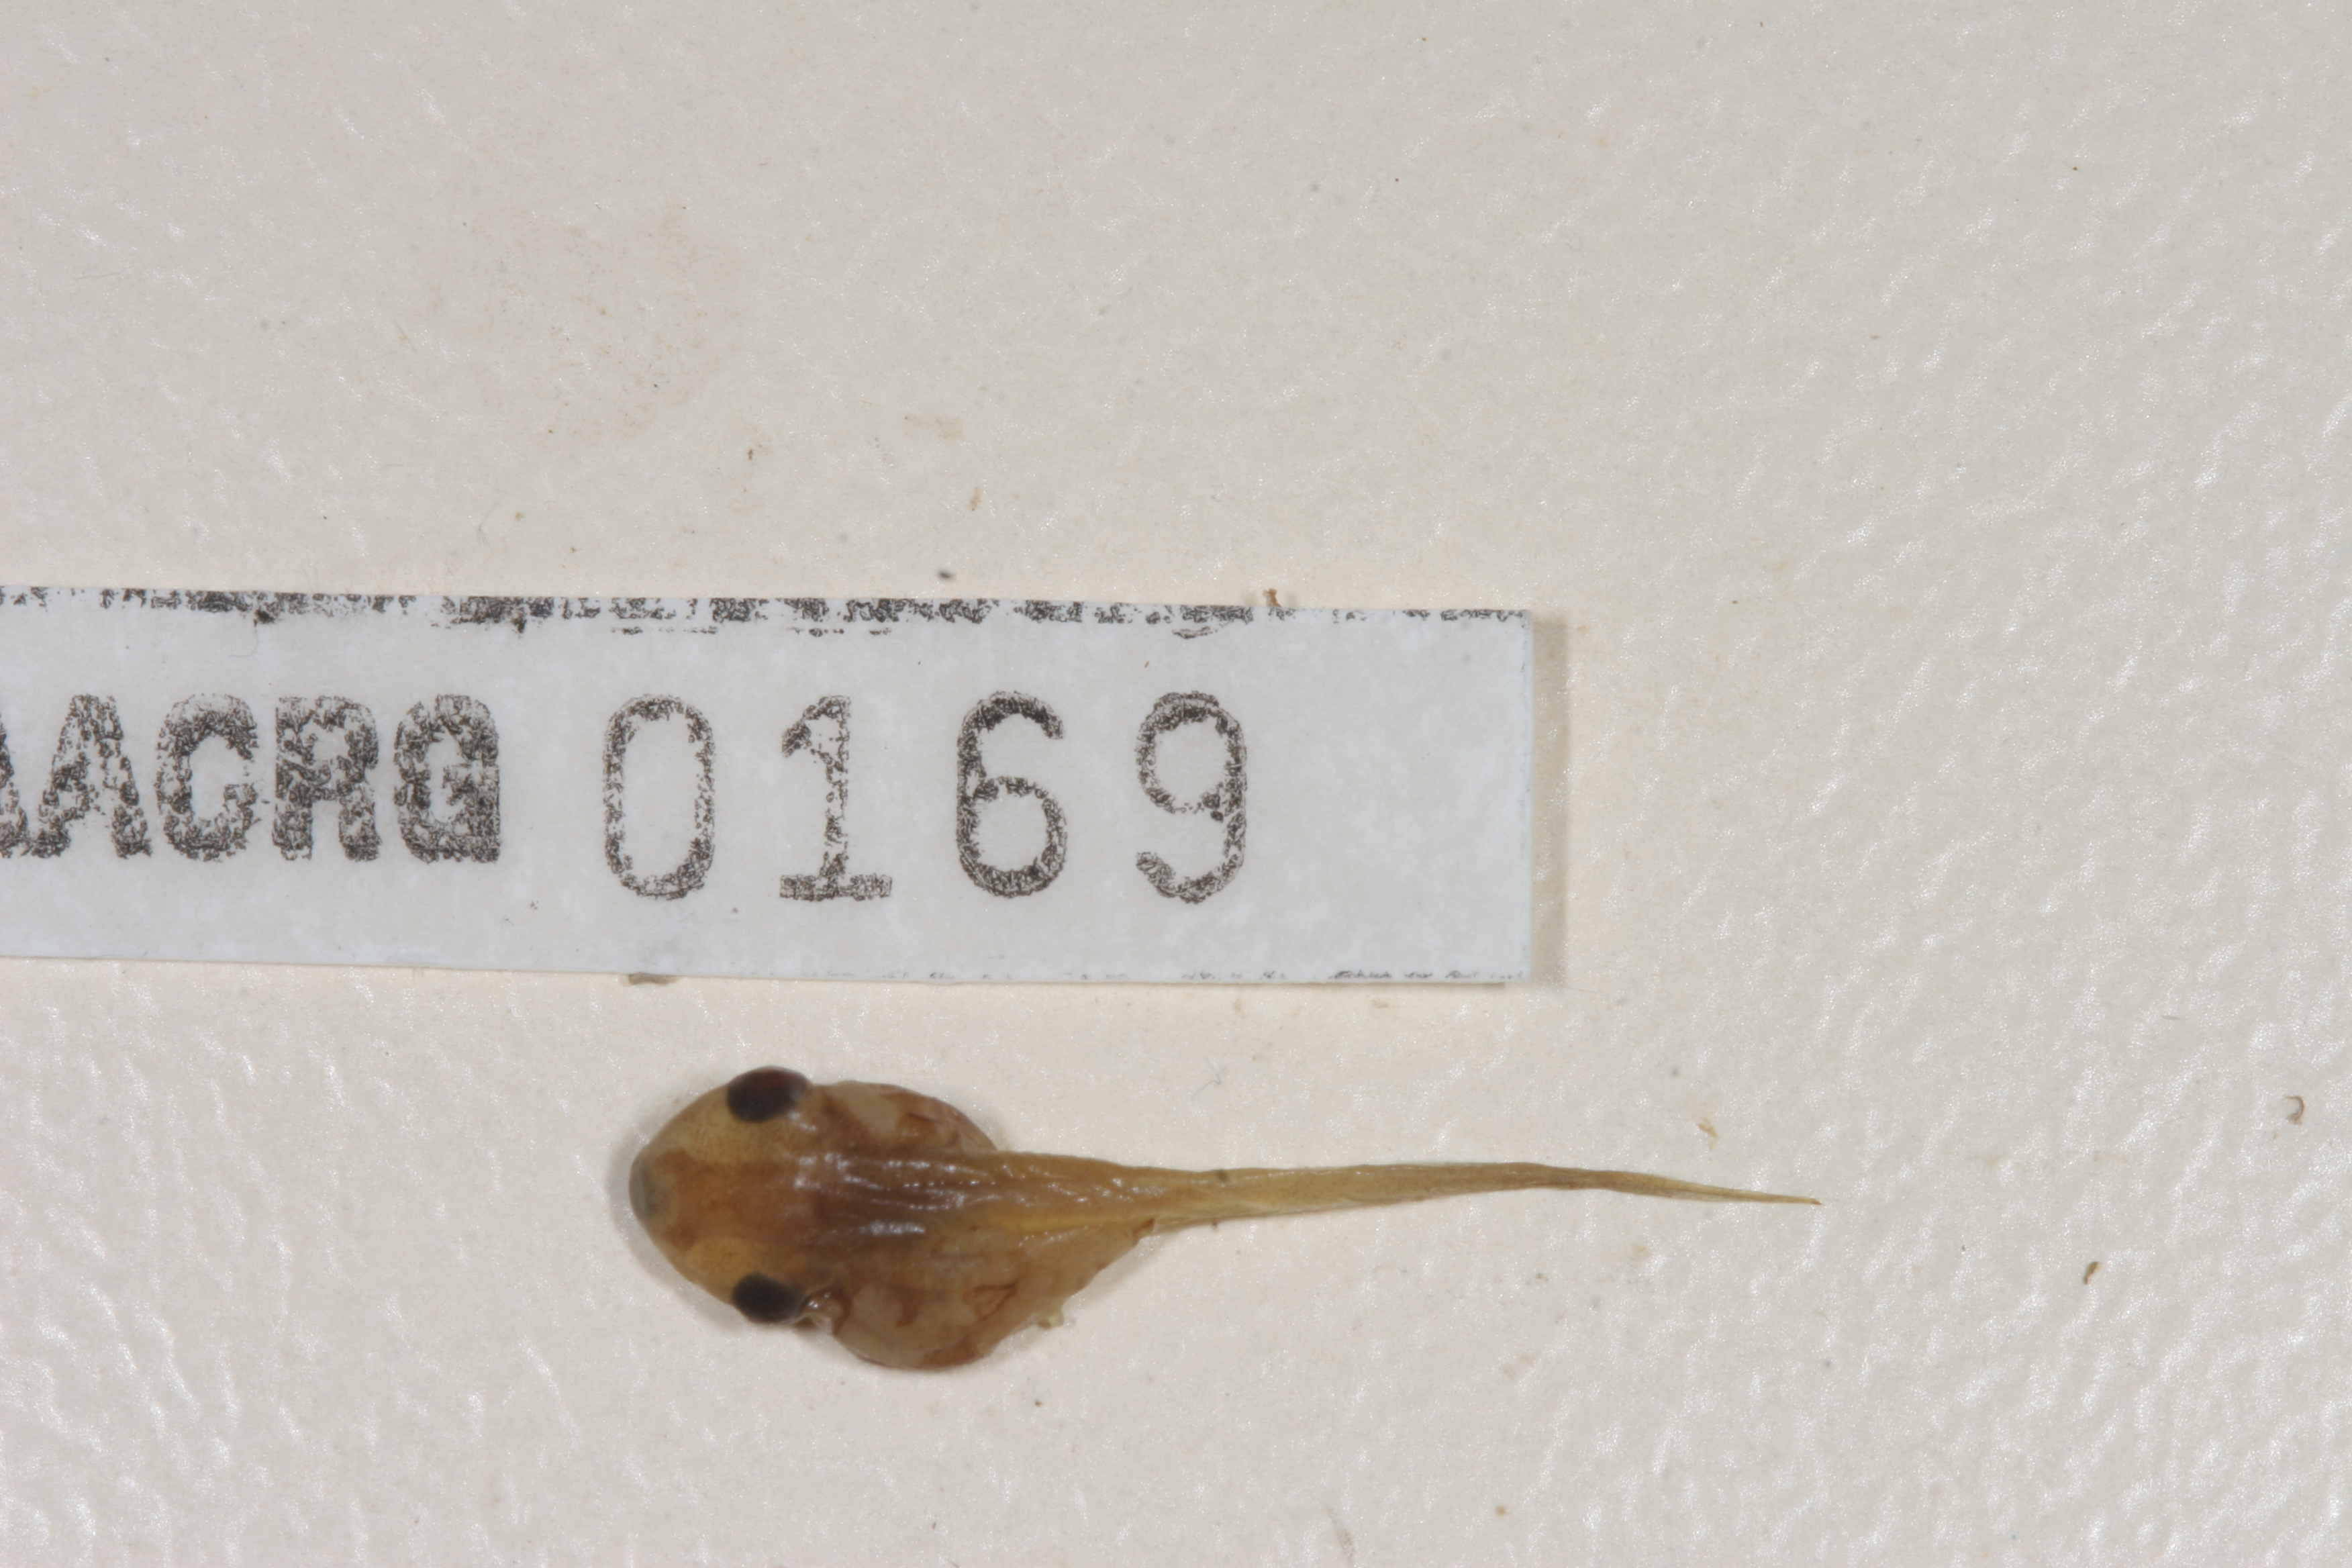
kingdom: Animalia
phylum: Chordata
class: Amphibia
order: Anura
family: Hyperoliidae
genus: Semnodactylus
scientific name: Semnodactylus wealii
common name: Weal's frog
